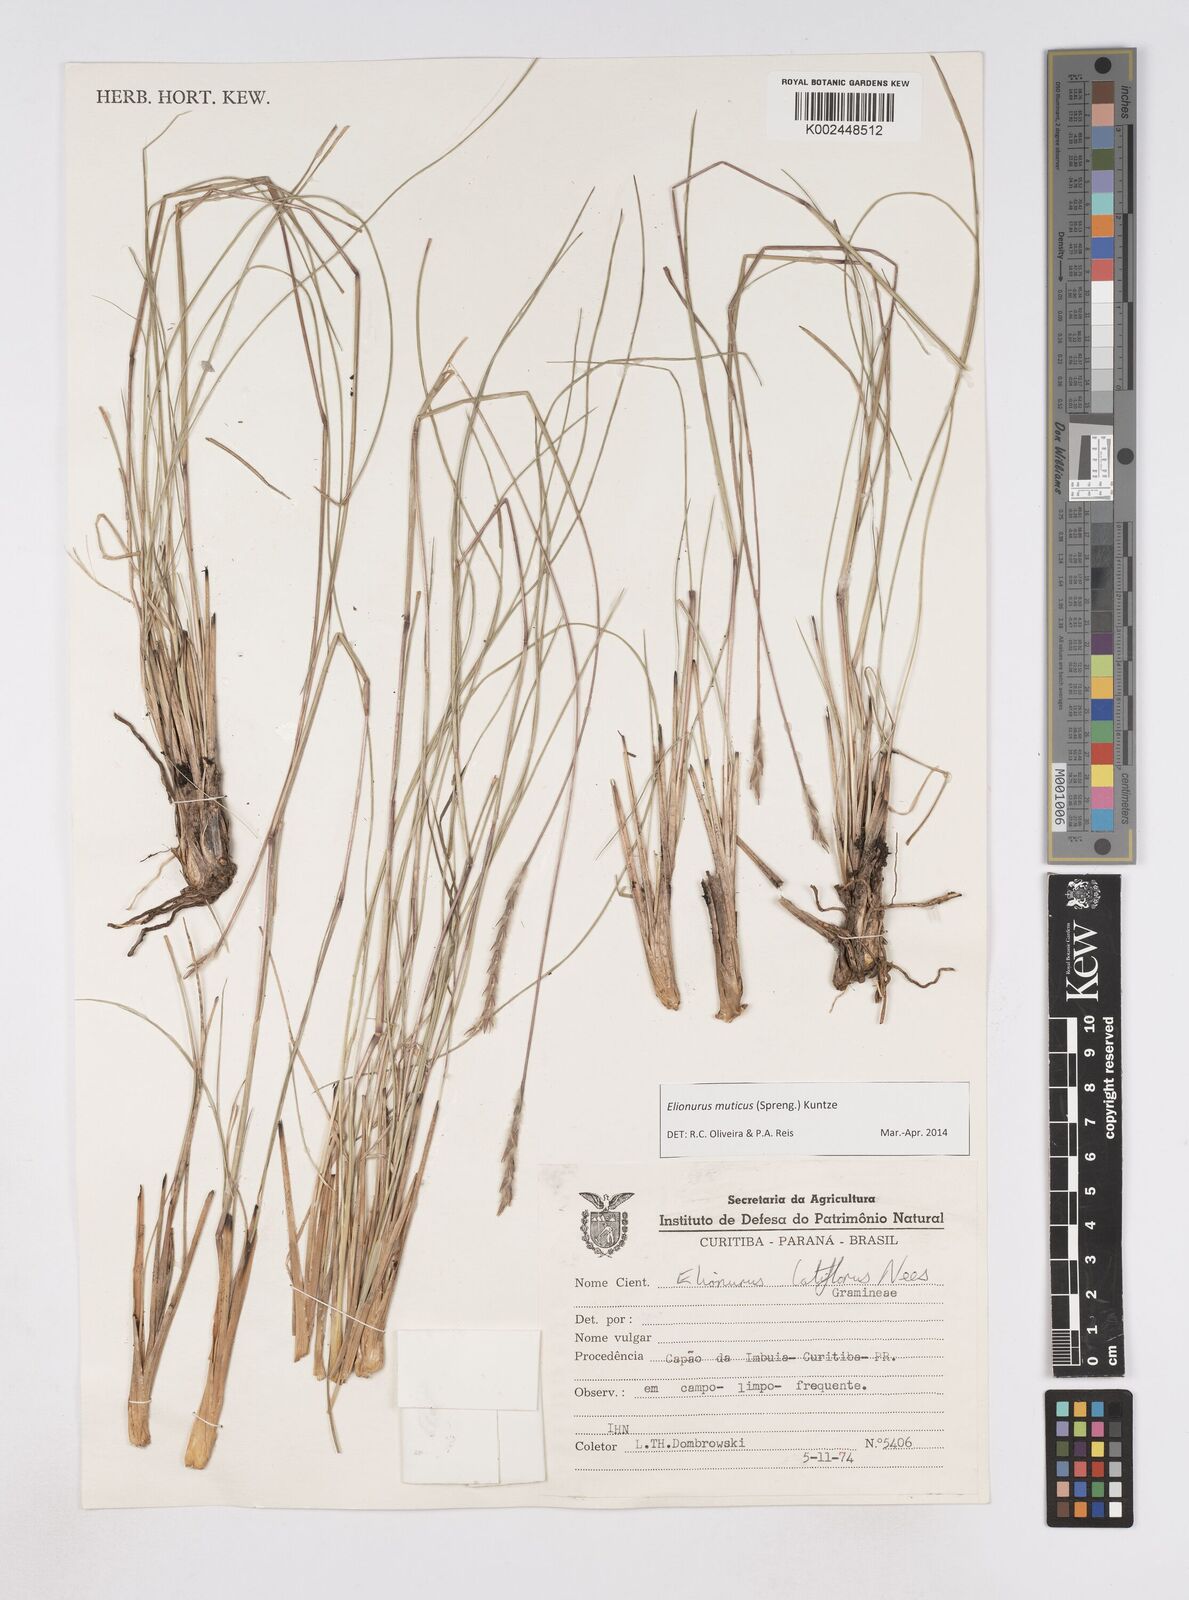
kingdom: Plantae
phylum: Tracheophyta
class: Liliopsida
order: Poales
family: Poaceae
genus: Elionurus
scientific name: Elionurus muticus
